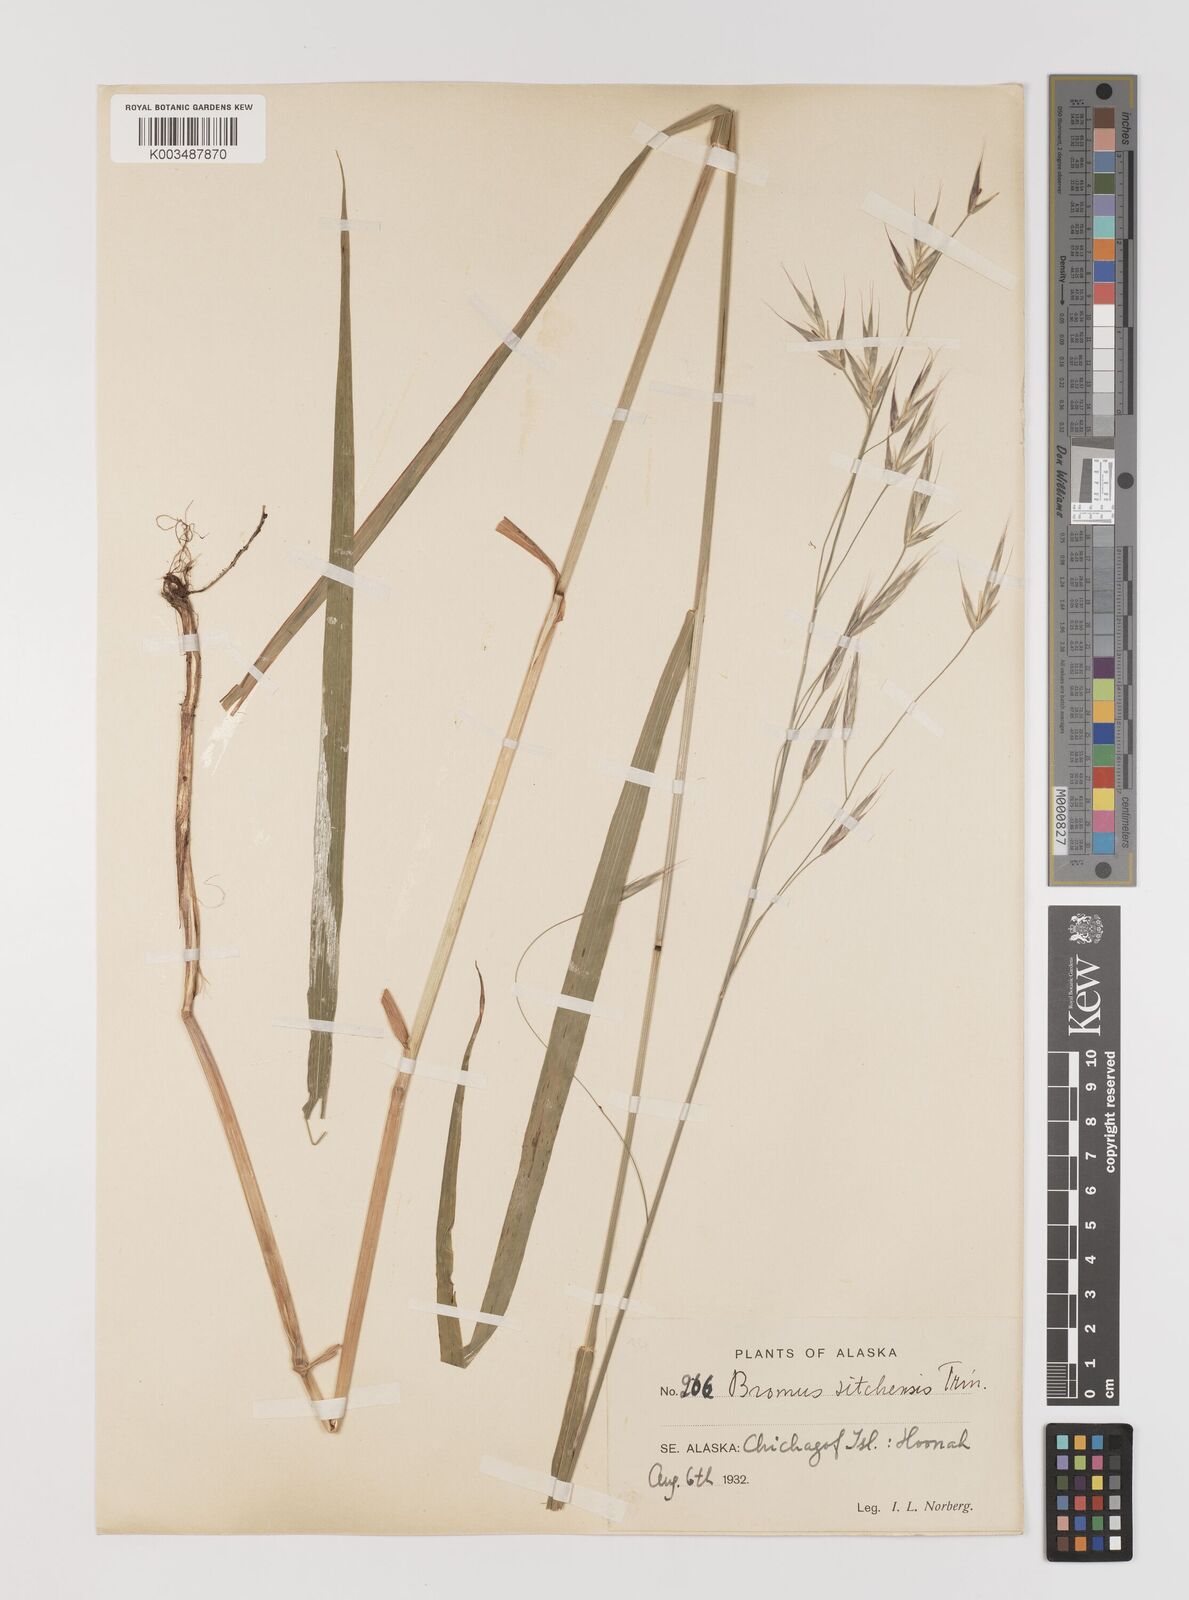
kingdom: Plantae
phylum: Tracheophyta
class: Liliopsida
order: Poales
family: Poaceae
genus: Bromus
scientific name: Bromus sitchensis
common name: Sitka brome
